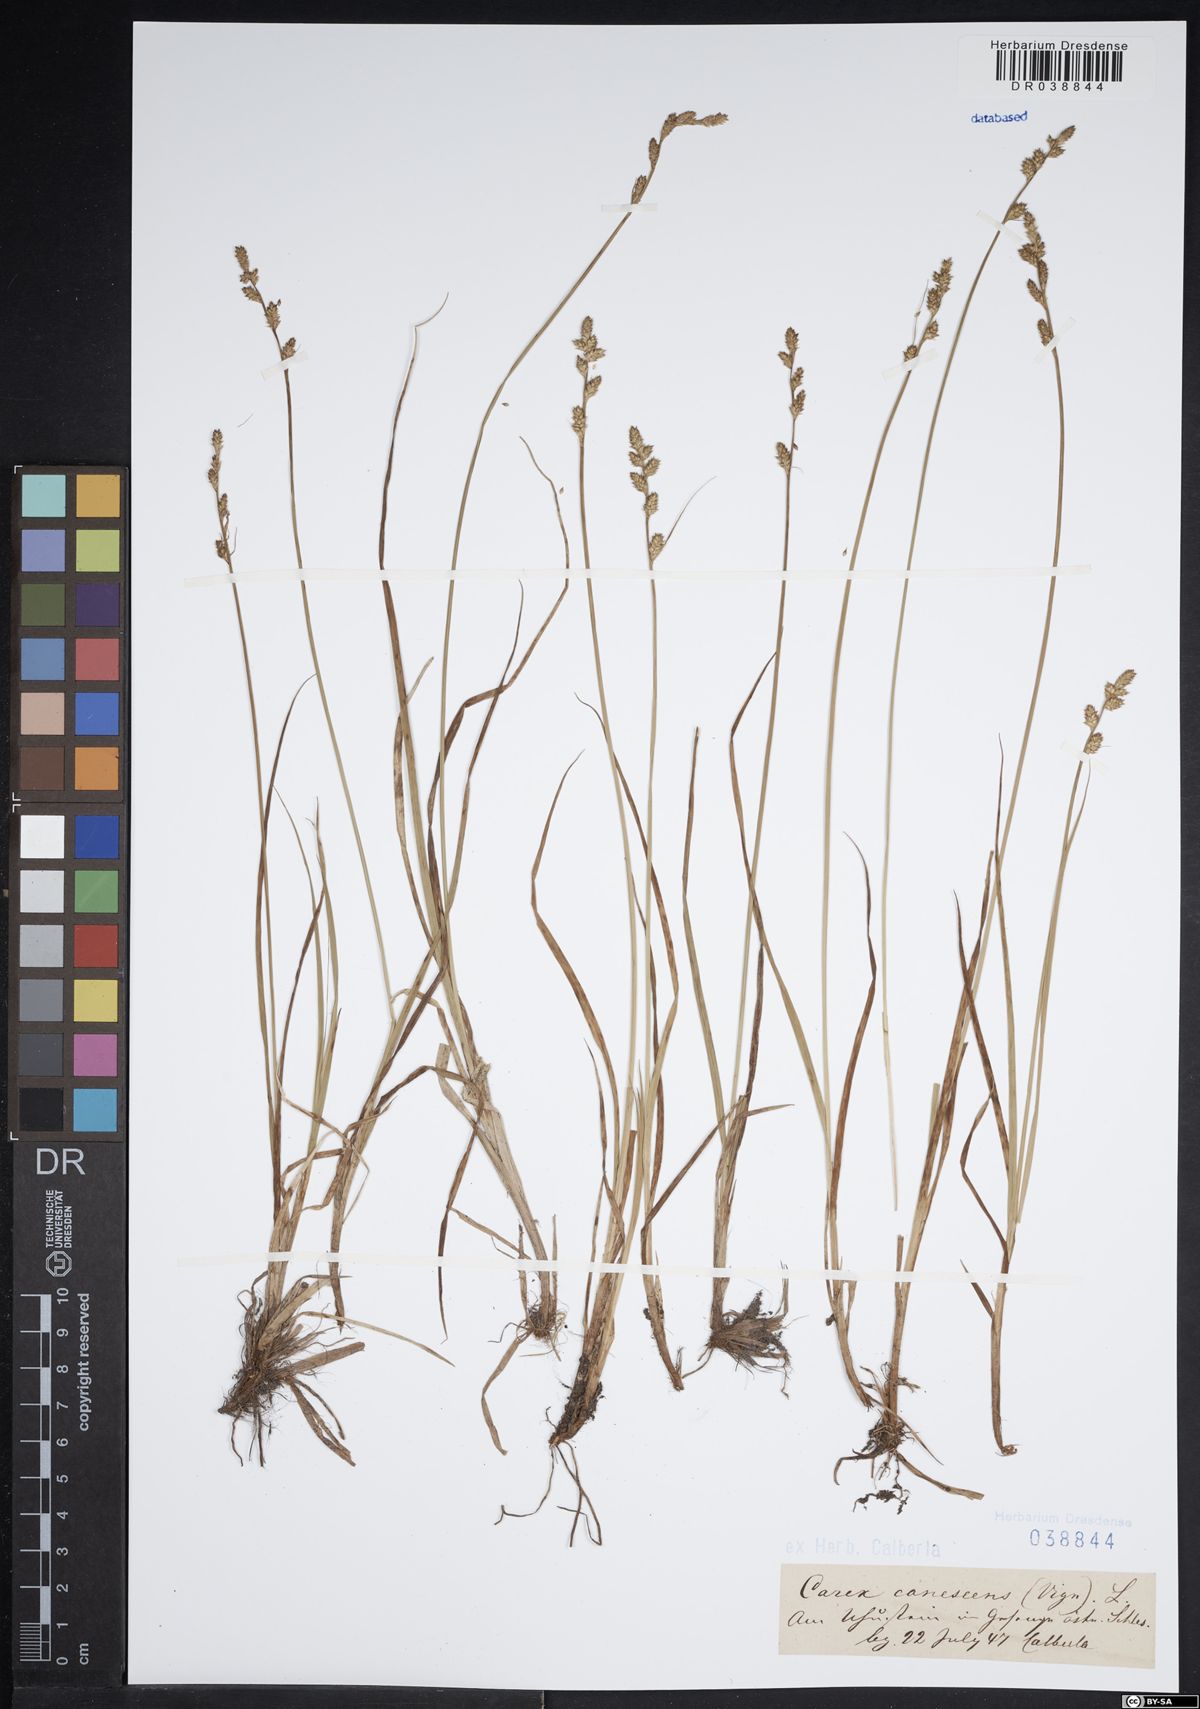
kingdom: Plantae
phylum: Tracheophyta
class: Liliopsida
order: Poales
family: Cyperaceae
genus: Carex
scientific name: Carex canescens
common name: White sedge
